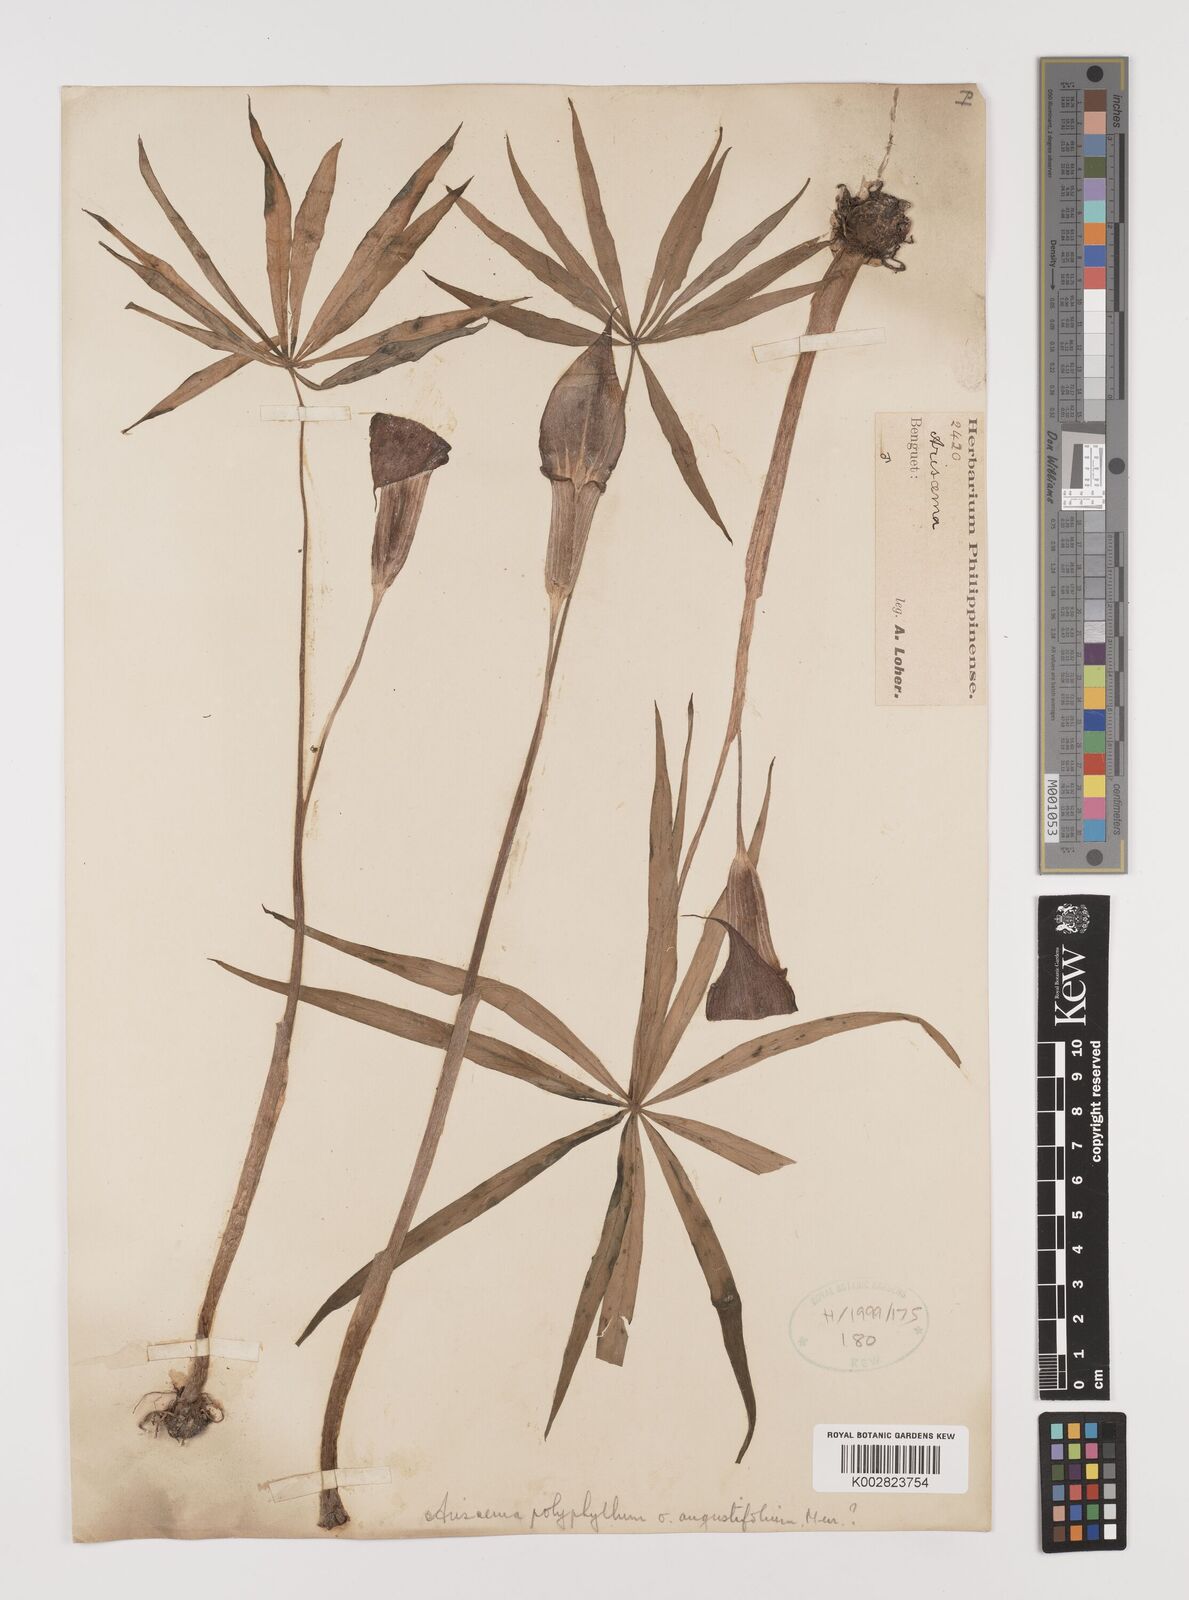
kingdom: Plantae
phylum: Tracheophyta
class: Liliopsida
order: Alismatales
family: Araceae
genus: Arisaema
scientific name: Arisaema polyphyllum
